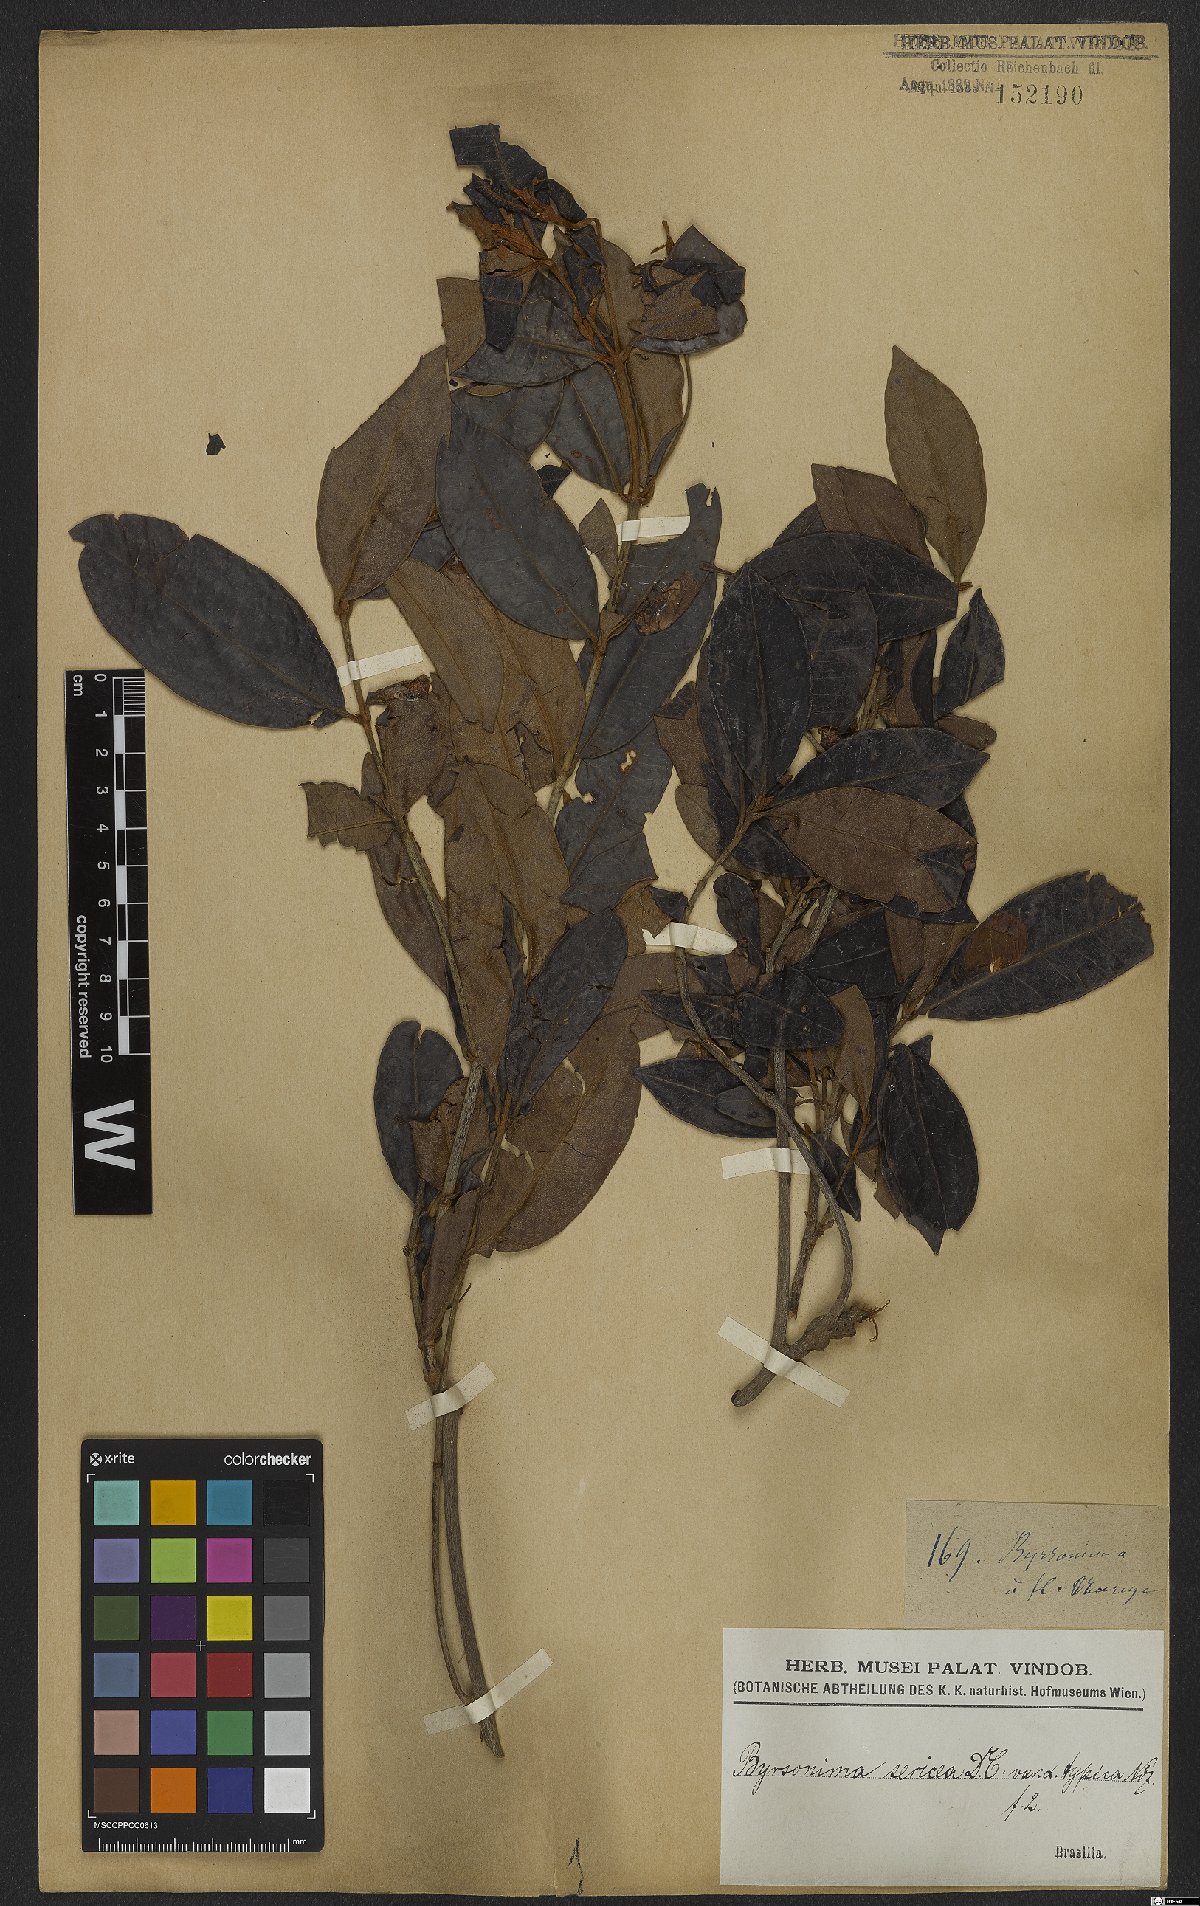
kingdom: Plantae
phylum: Tracheophyta
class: Magnoliopsida
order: Malpighiales
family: Malpighiaceae
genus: Byrsonima
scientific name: Byrsonima sericea
